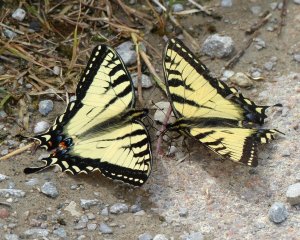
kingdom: Animalia
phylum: Arthropoda
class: Insecta
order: Lepidoptera
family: Papilionidae
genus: Pterourus
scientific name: Pterourus canadensis
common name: Canadian Tiger Swallowtail
